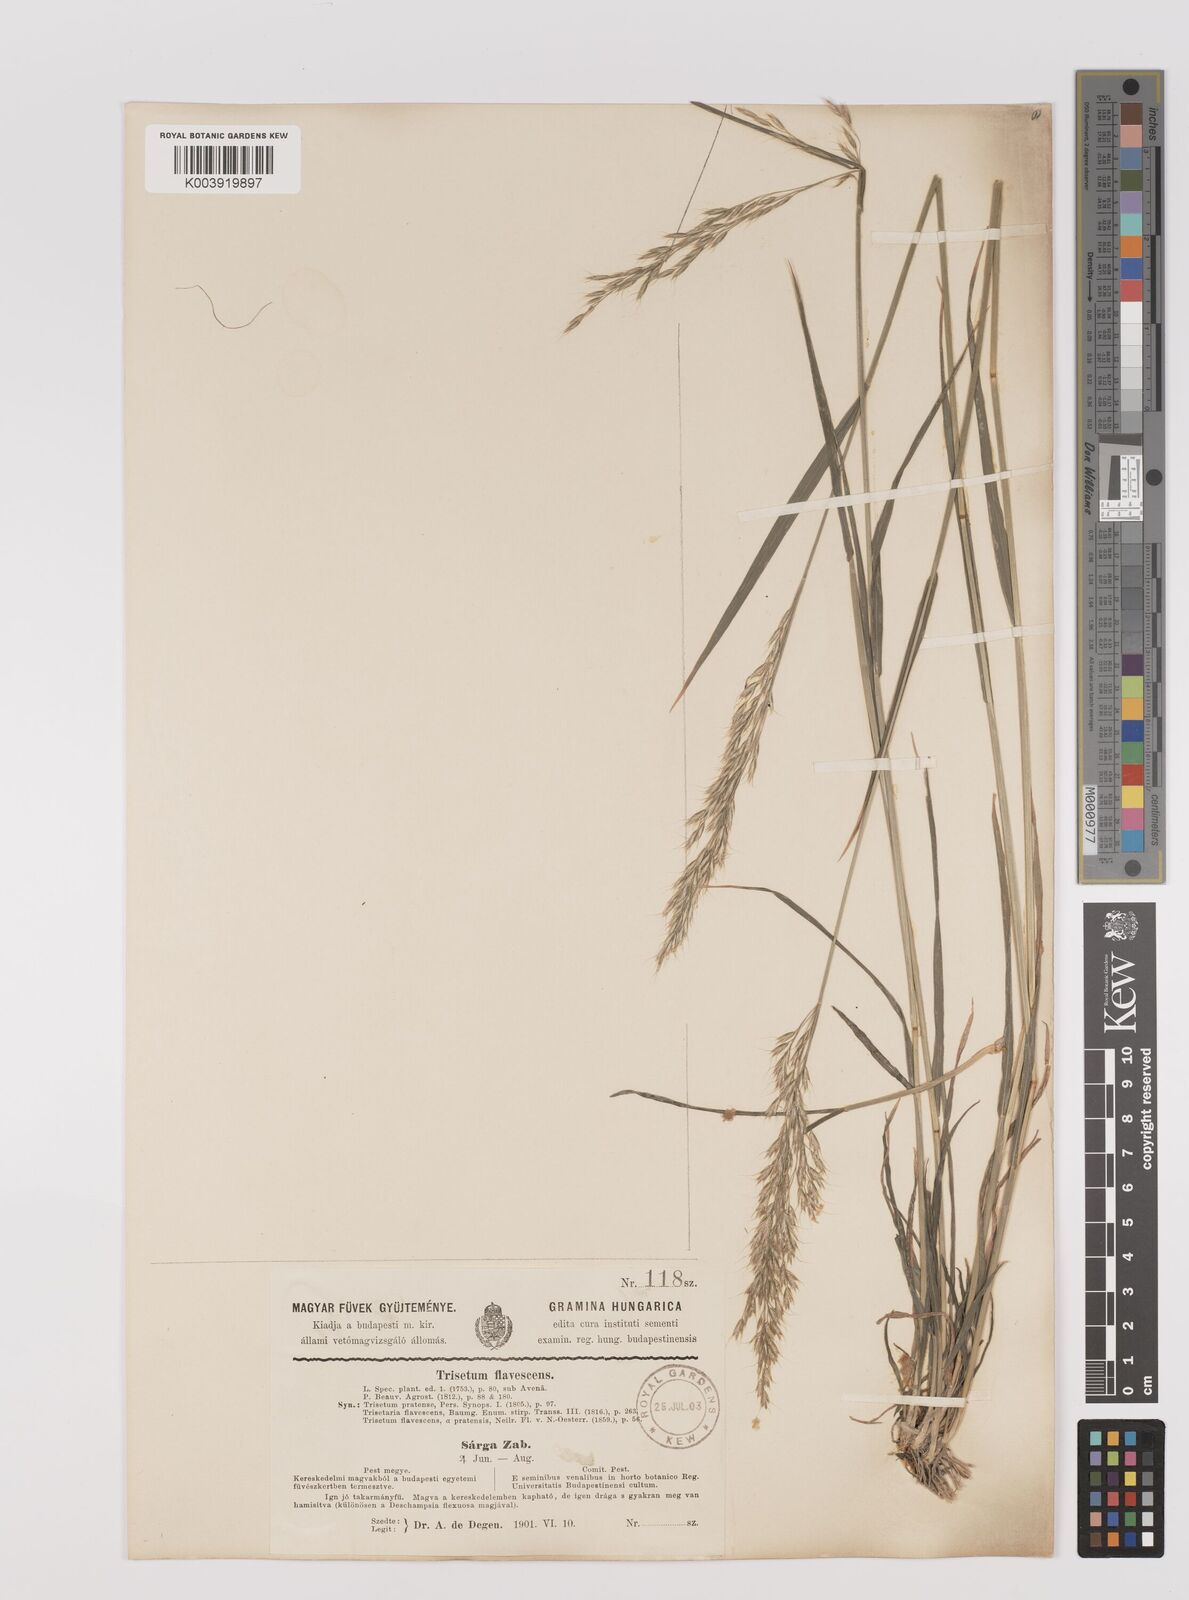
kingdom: Plantae
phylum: Tracheophyta
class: Liliopsida
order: Poales
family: Poaceae
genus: Trisetum
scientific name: Trisetum flavescens
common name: Yellow oat-grass
